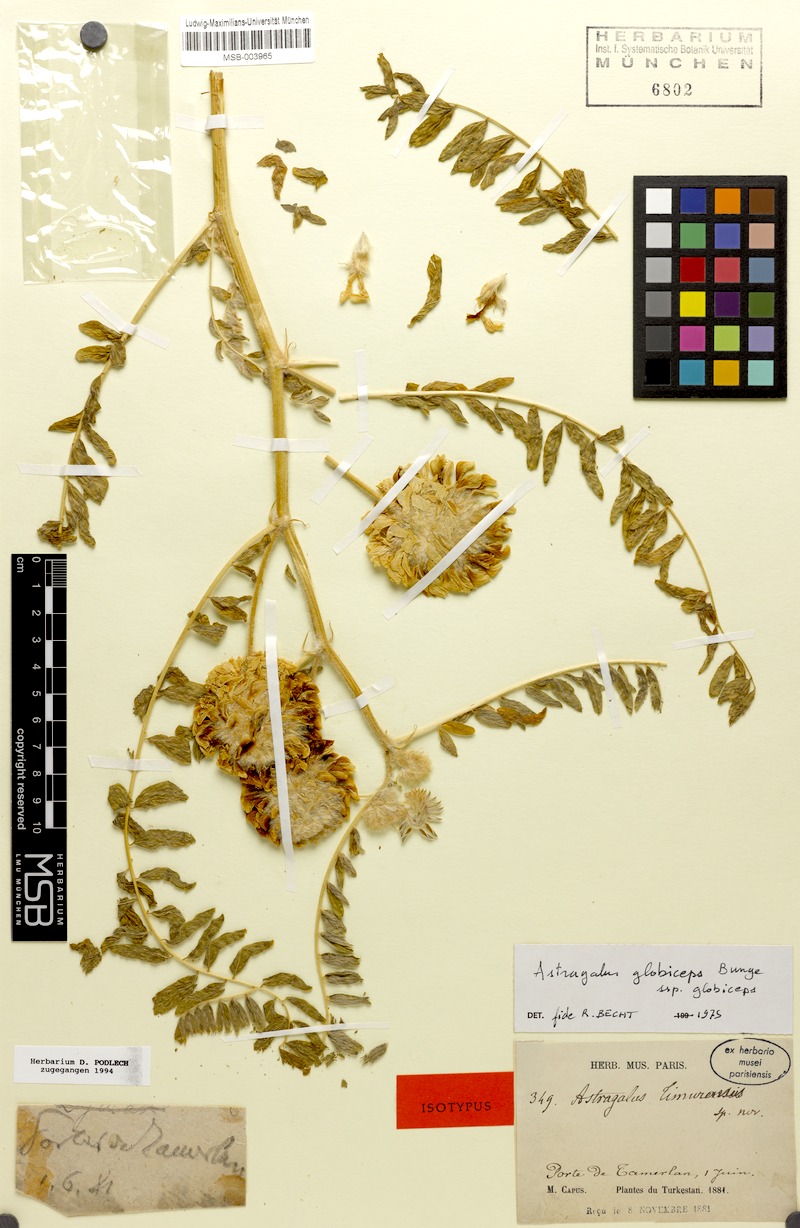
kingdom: Plantae
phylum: Tracheophyta
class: Magnoliopsida
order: Fabales
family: Fabaceae
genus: Astragalus
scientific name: Astragalus globiceps
